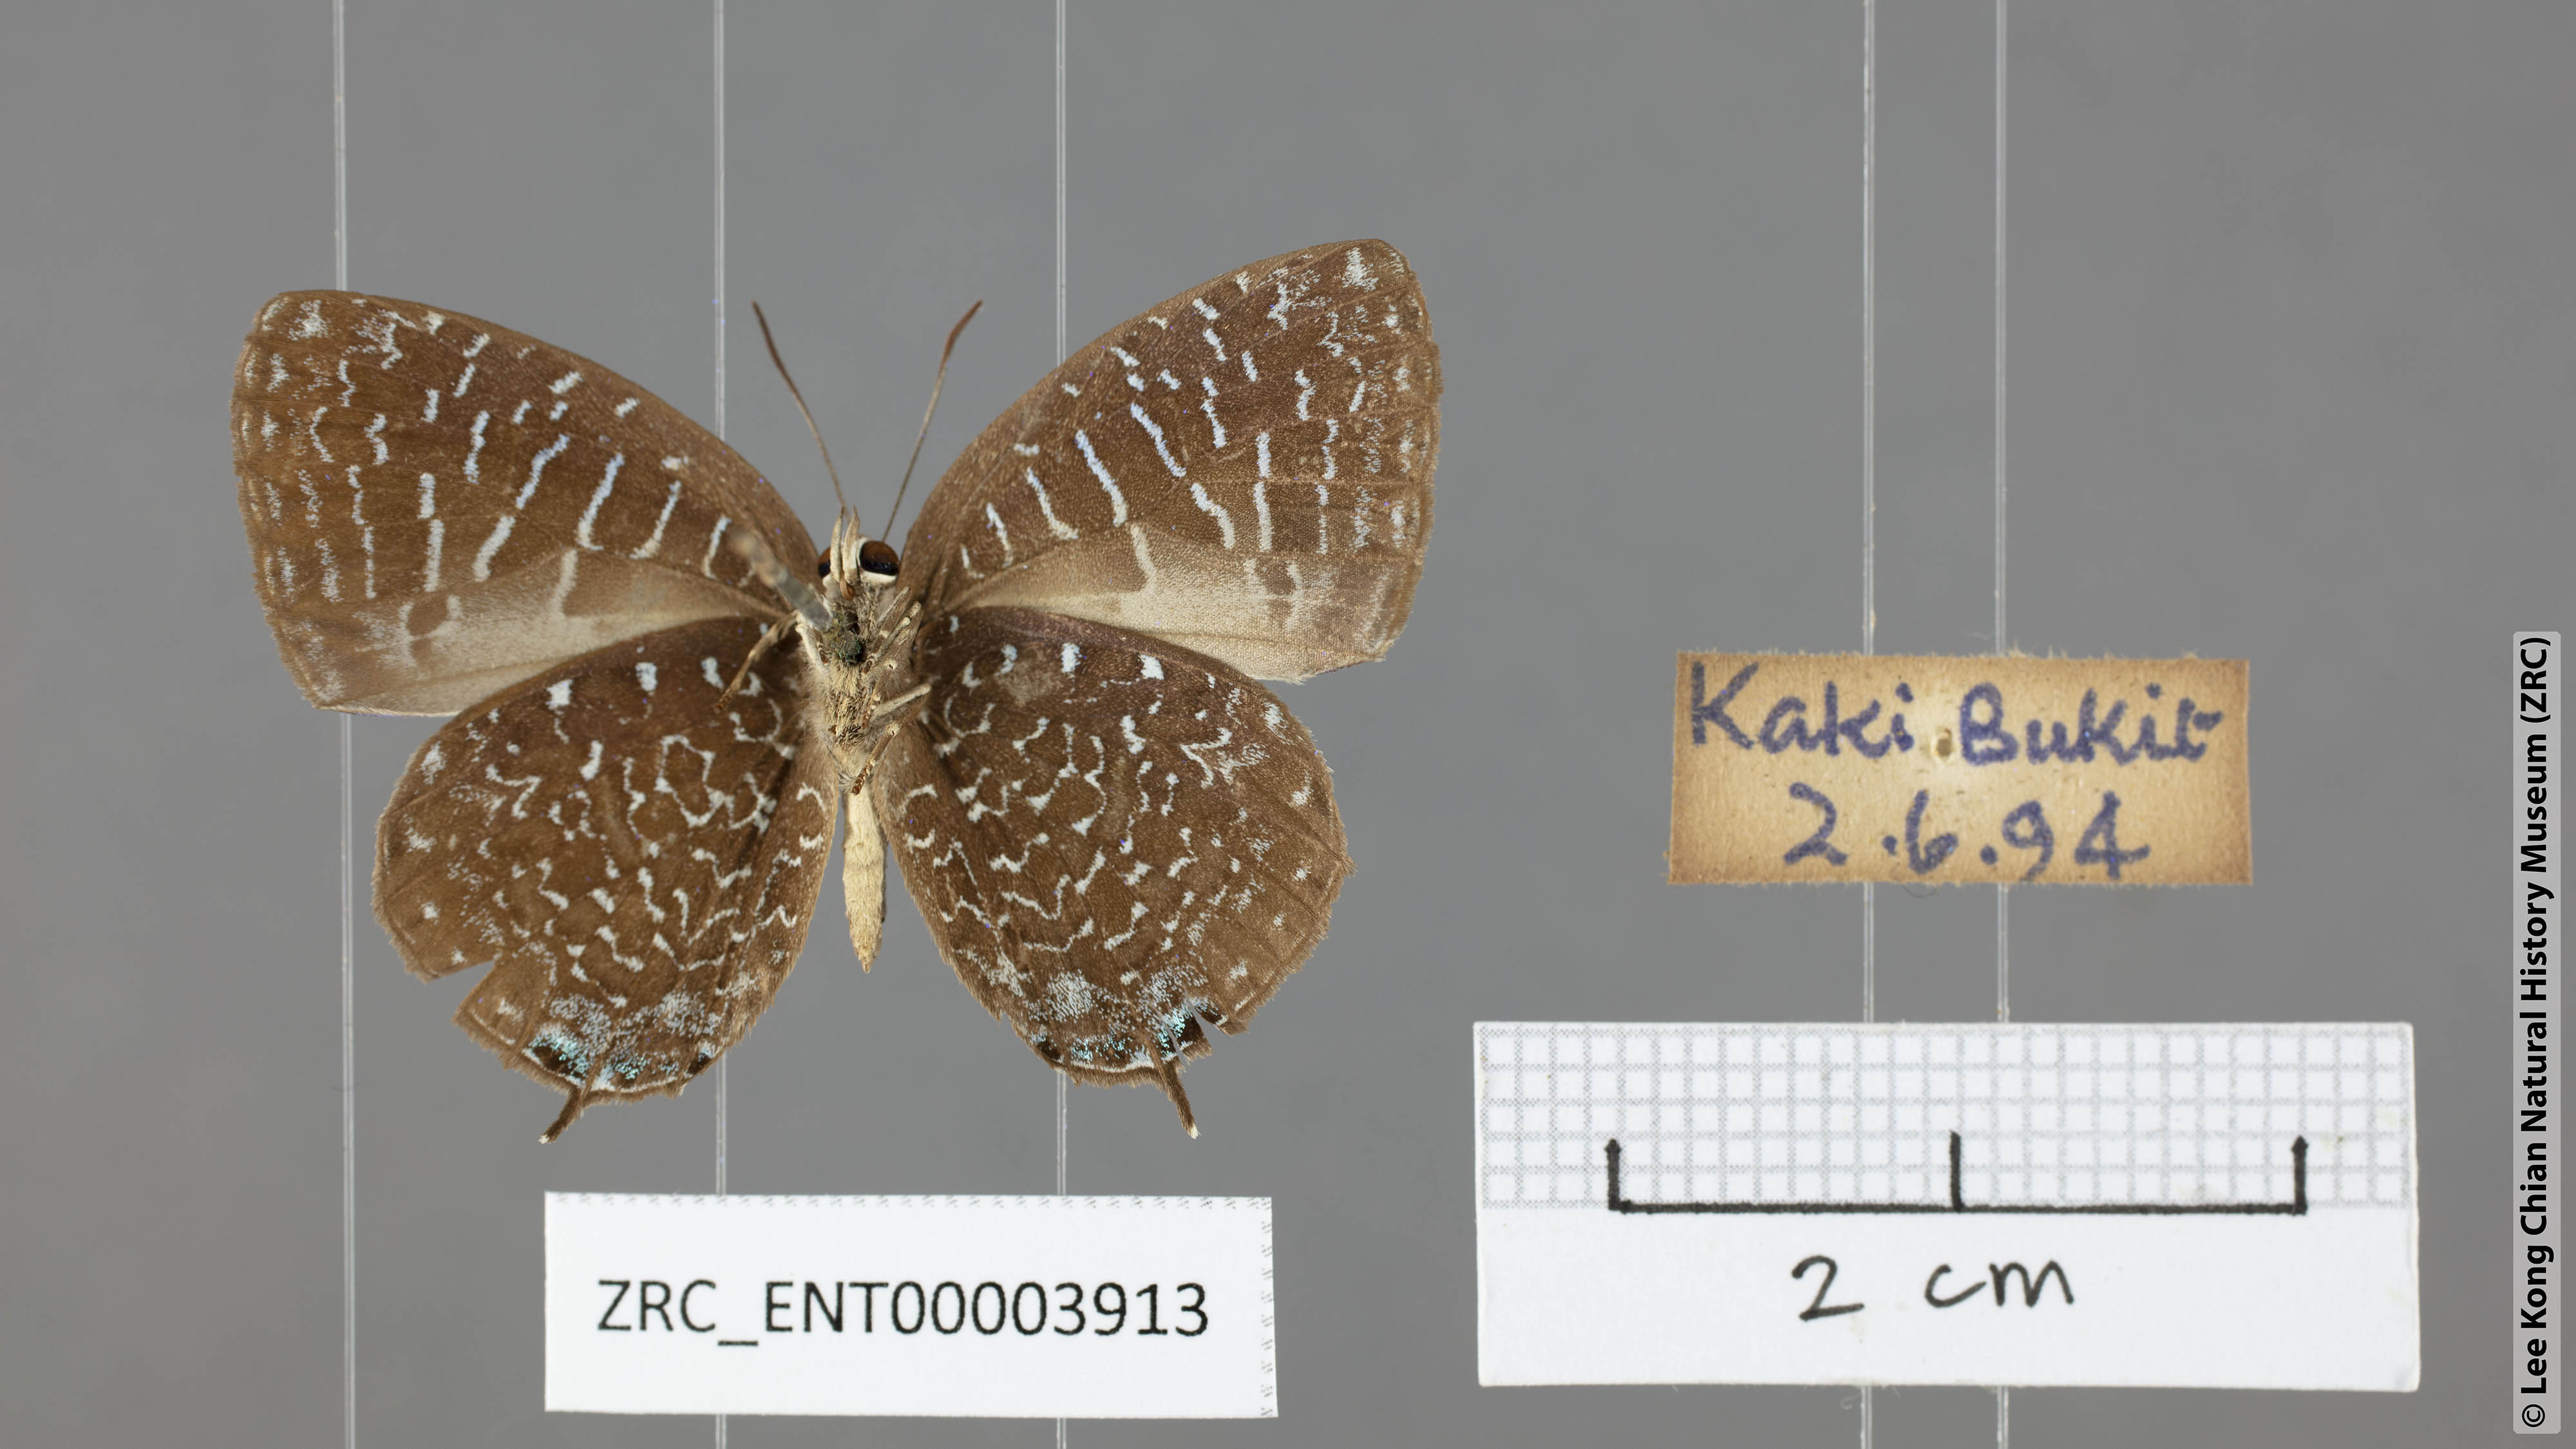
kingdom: Animalia
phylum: Arthropoda
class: Insecta
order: Lepidoptera
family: Lycaenidae
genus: Arhopala
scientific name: Arhopala democritus
